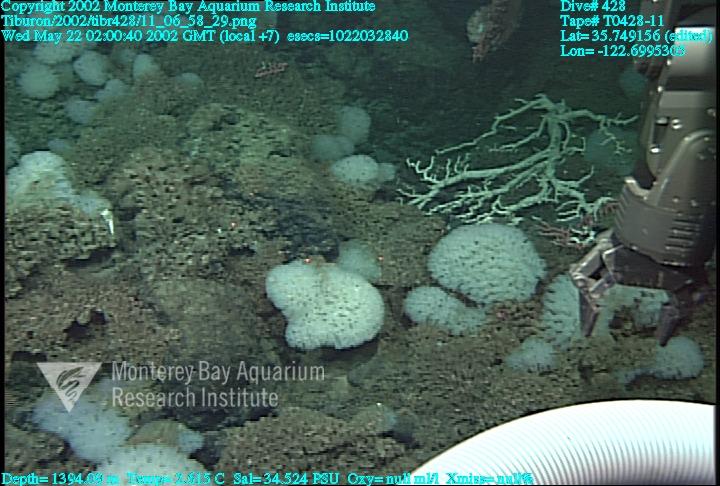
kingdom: Animalia
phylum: Porifera
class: Hexactinellida
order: Sceptrulophora
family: Farreidae
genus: Farrea
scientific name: Farrea occa
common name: Reversed glass sponge
